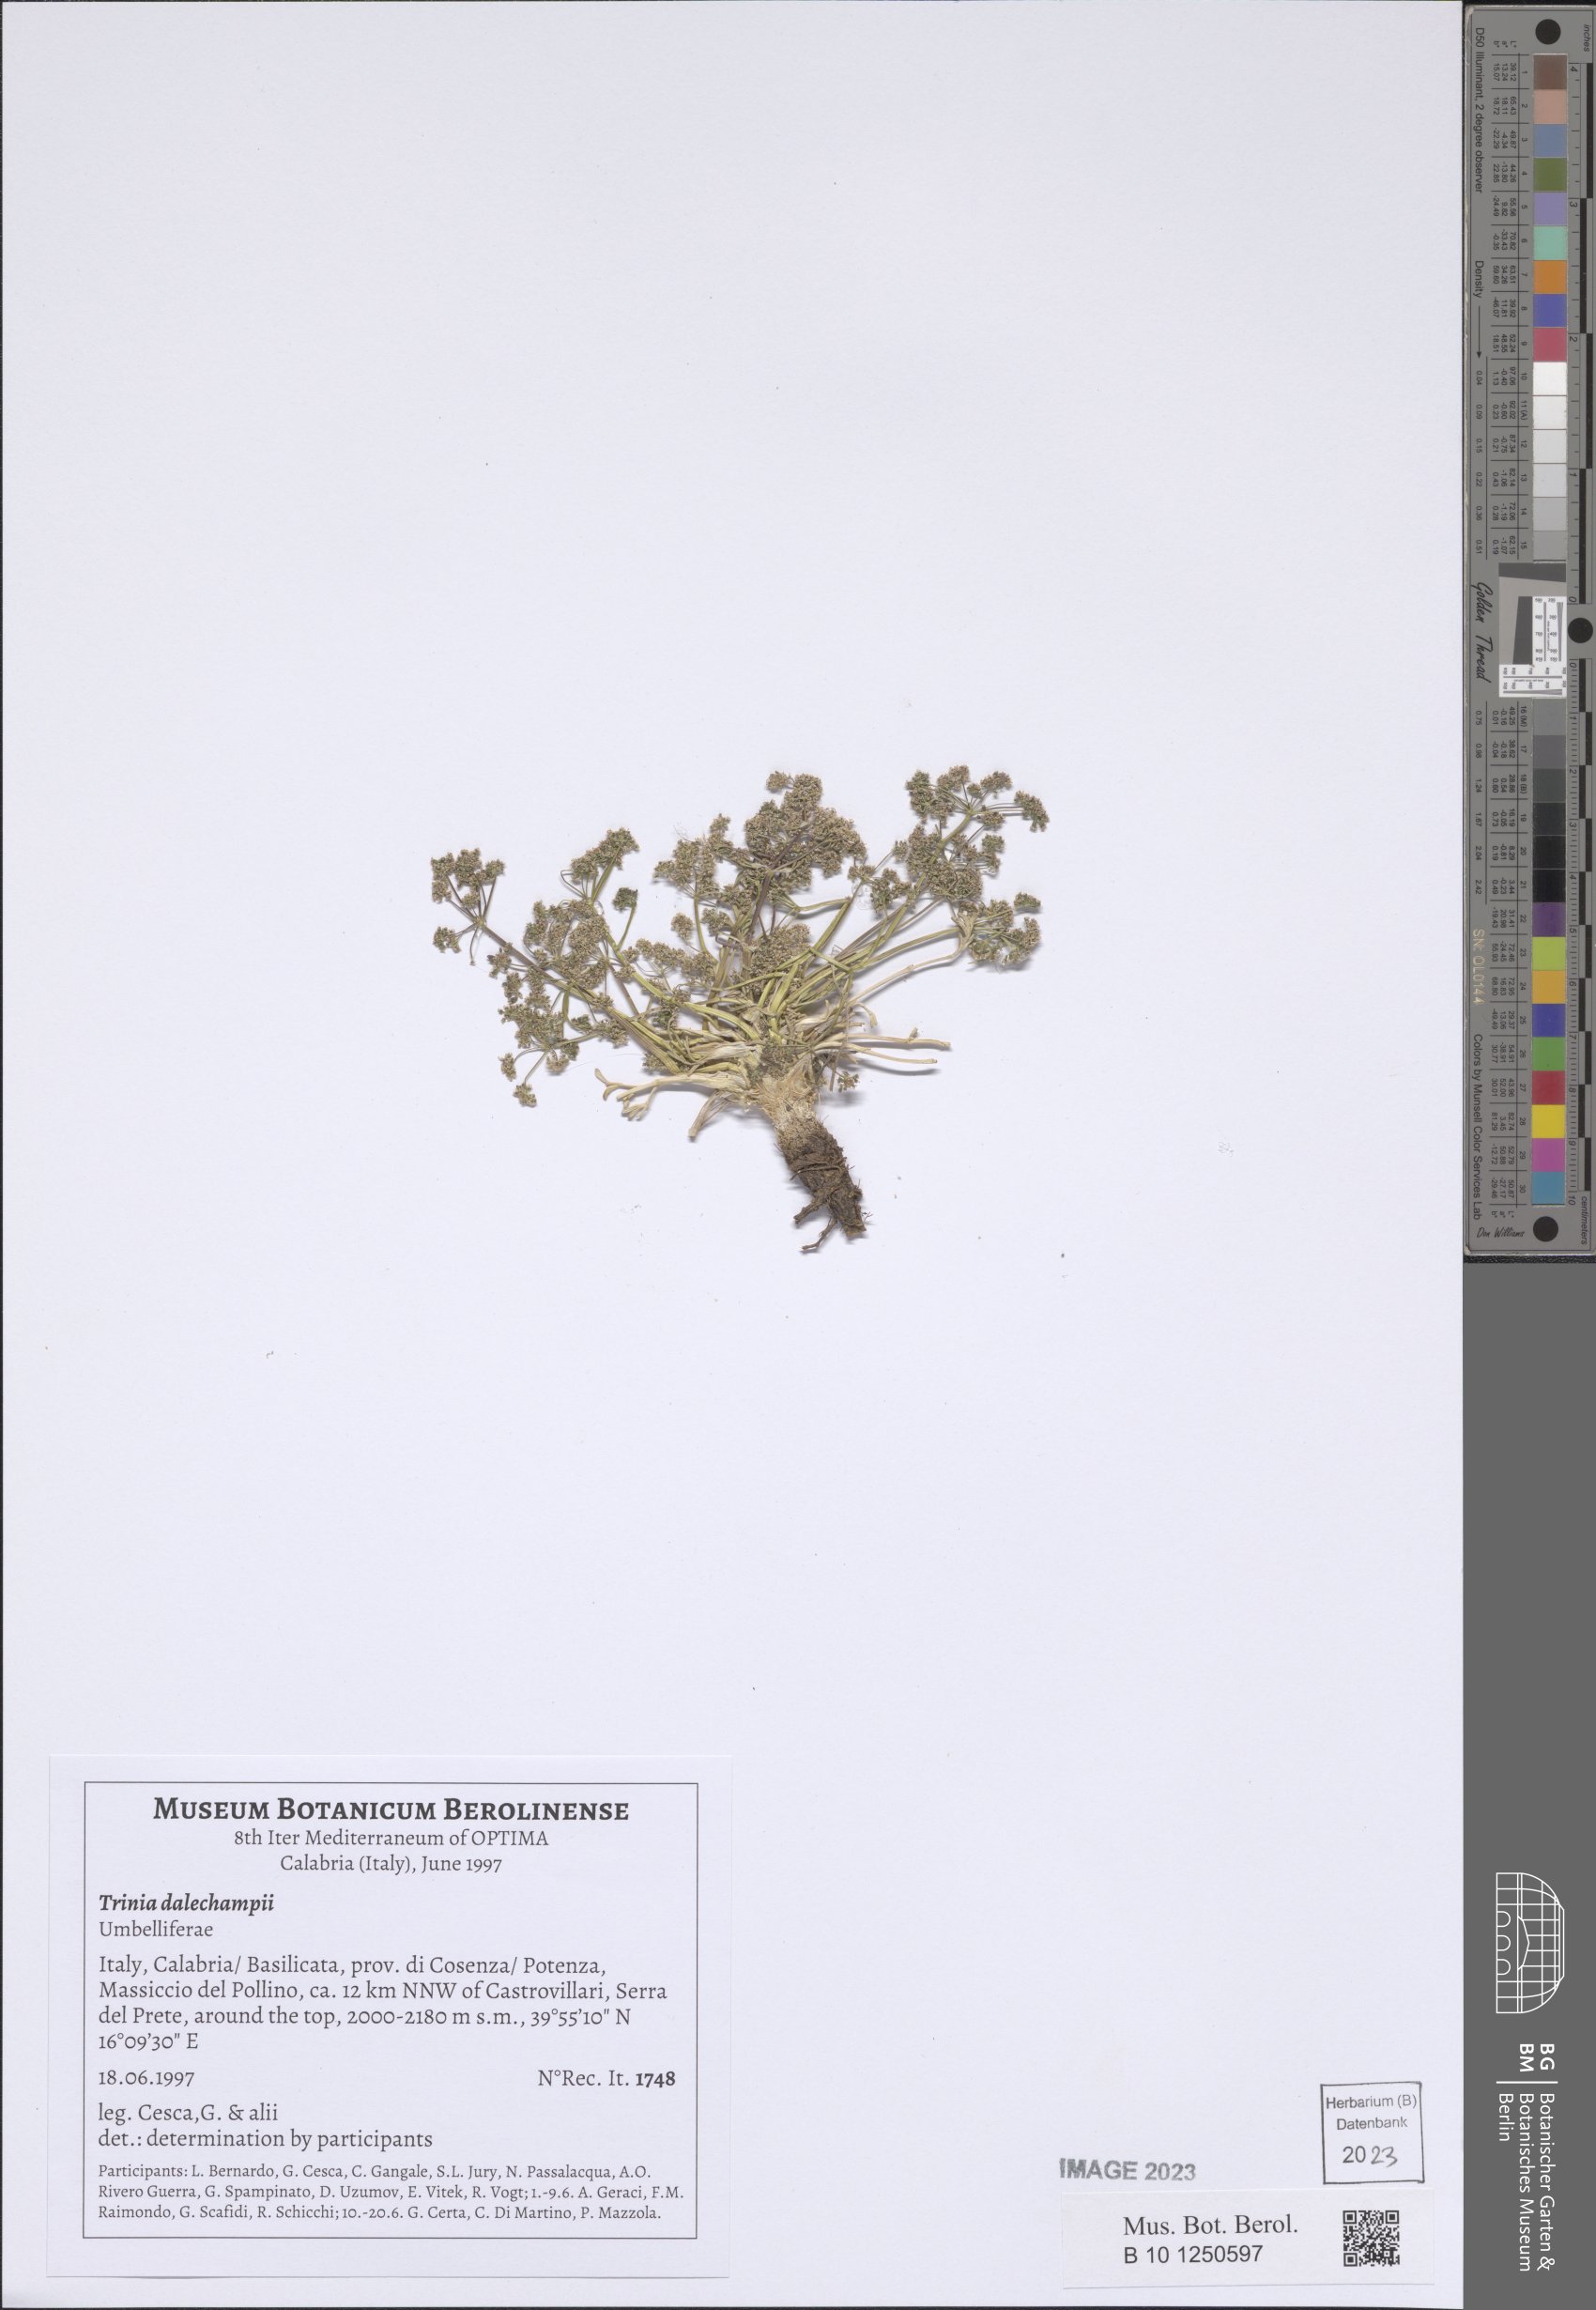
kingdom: Plantae
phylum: Tracheophyta
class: Magnoliopsida
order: Apiales
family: Apiaceae
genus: Trinia
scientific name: Trinia dalechampii
